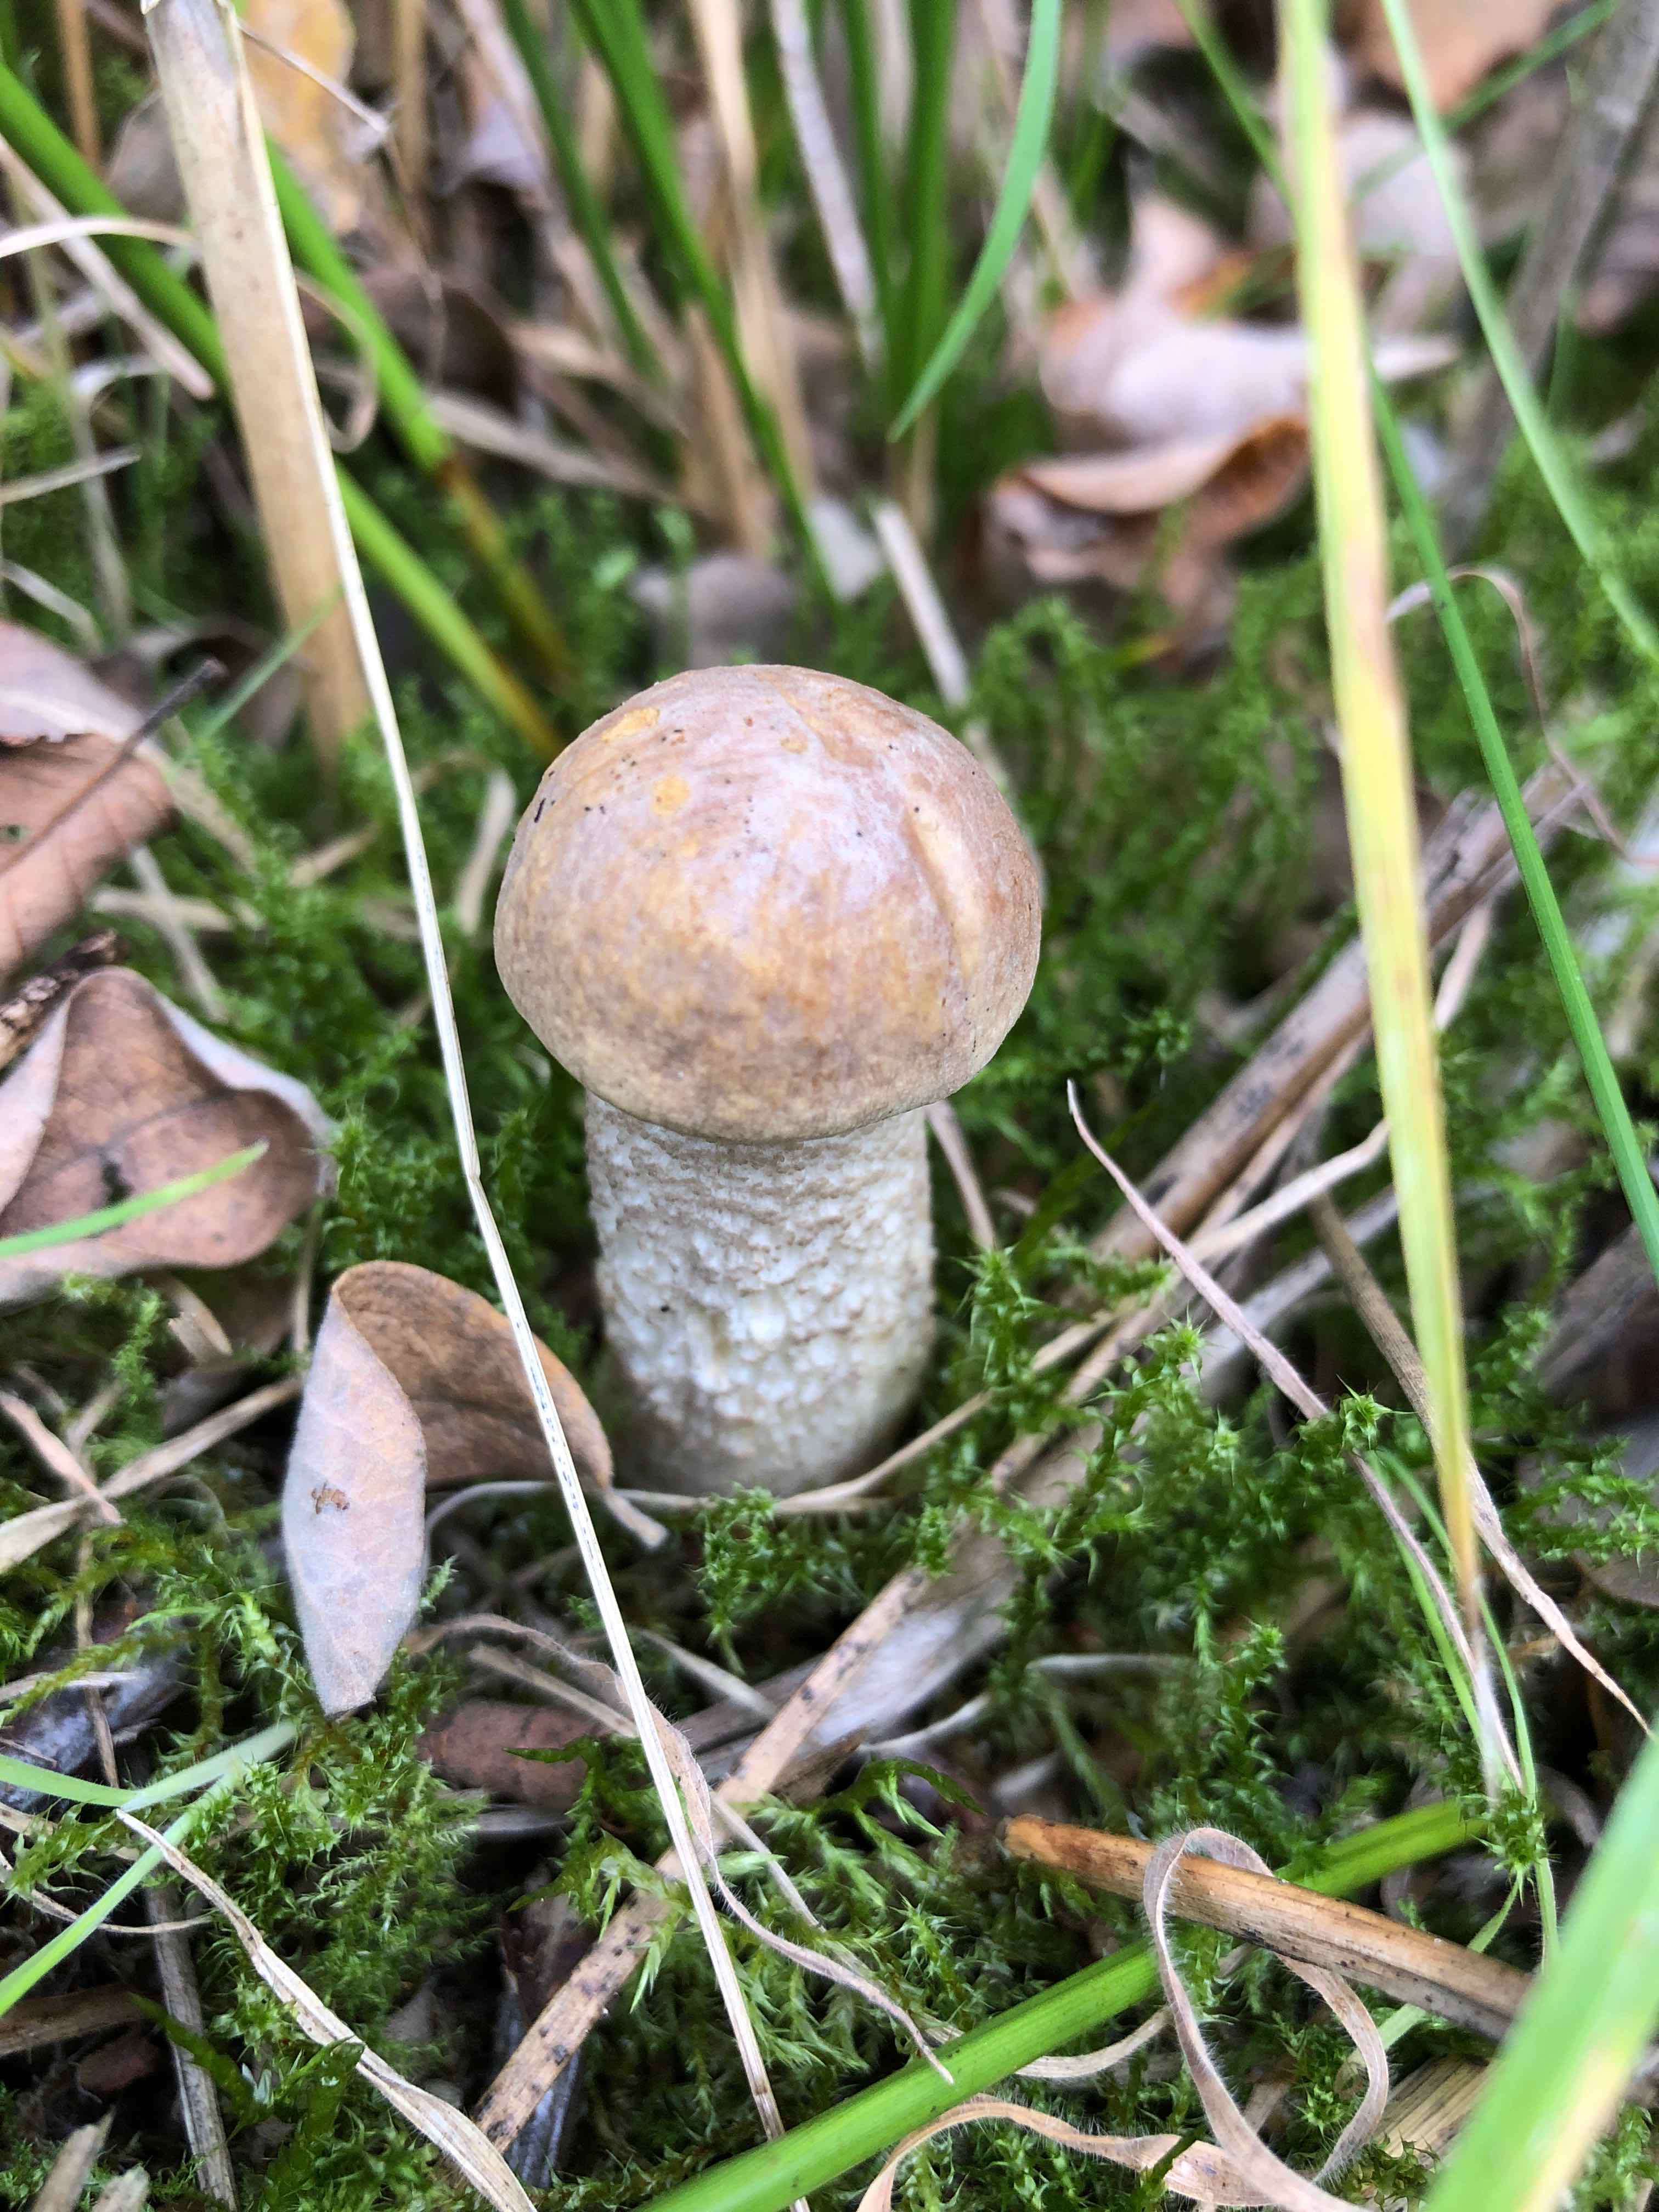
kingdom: Fungi
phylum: Basidiomycota
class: Agaricomycetes
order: Boletales
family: Boletaceae
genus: Leccinum
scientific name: Leccinum
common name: skælrørhat
